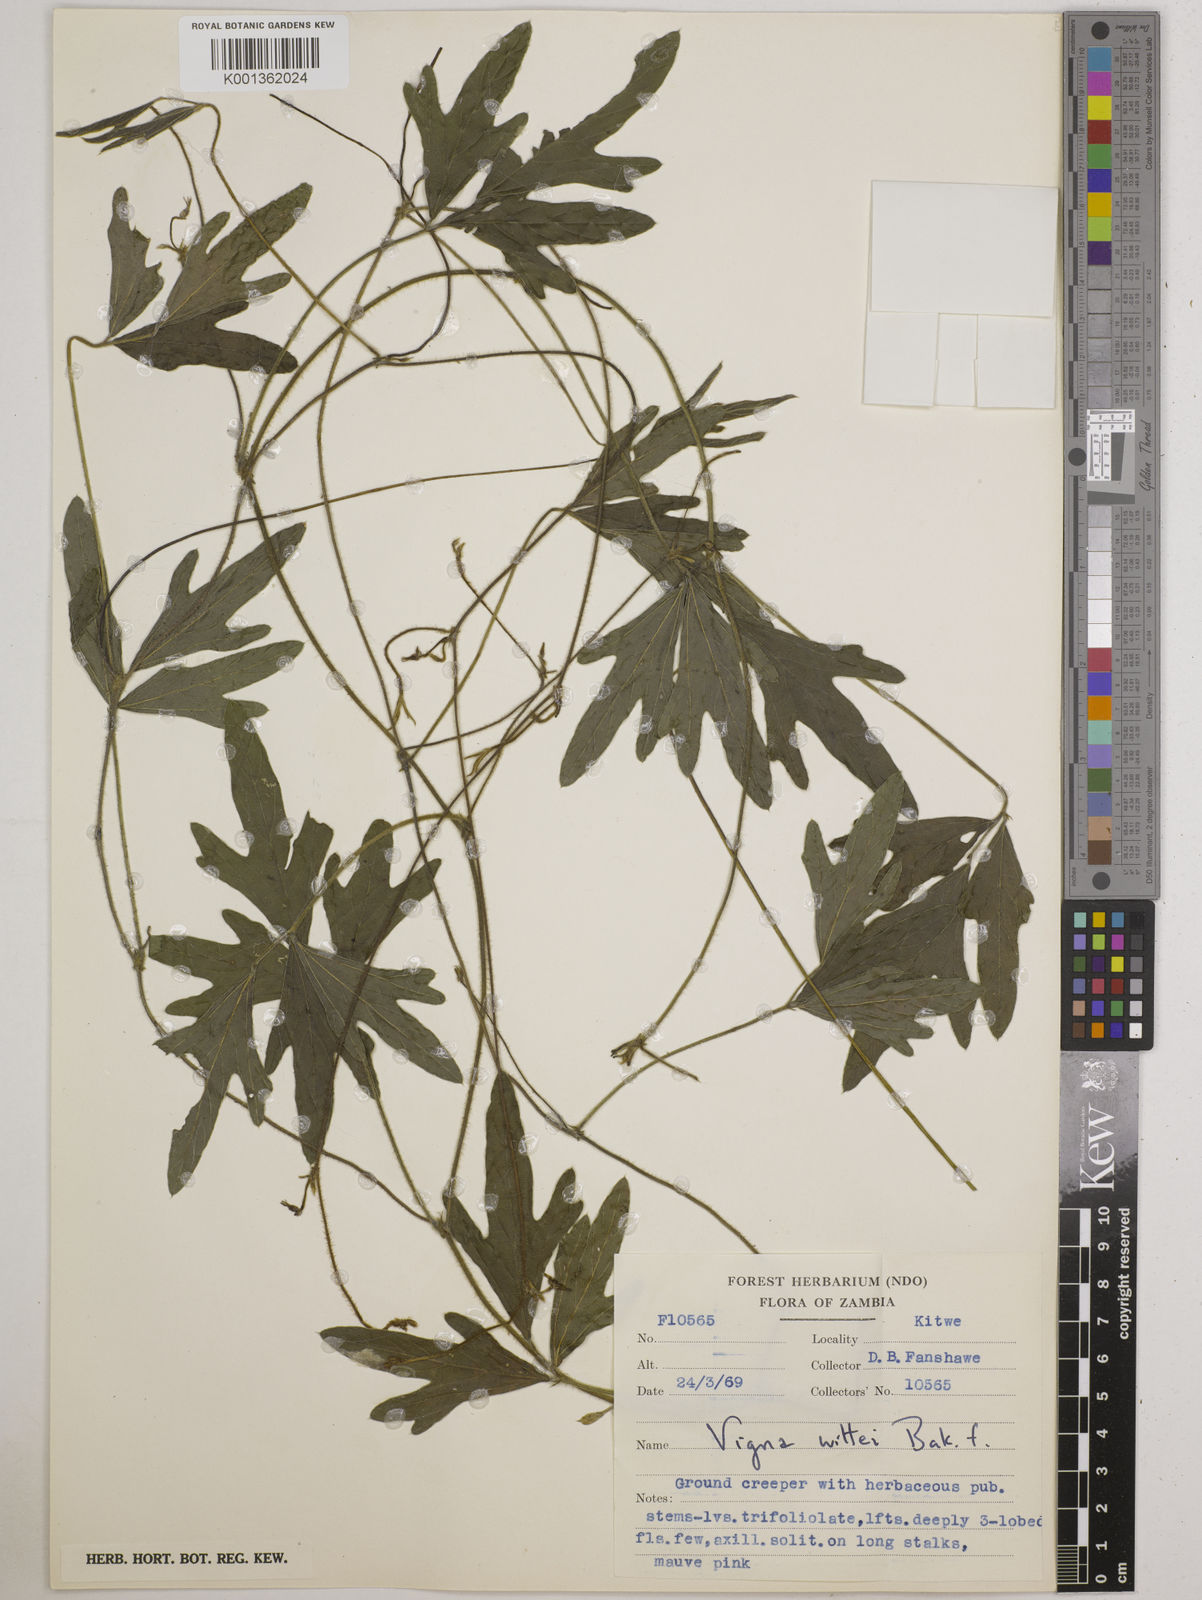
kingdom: Plantae
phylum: Tracheophyta
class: Magnoliopsida
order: Fabales
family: Fabaceae
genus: Vigna
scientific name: Vigna radicans
